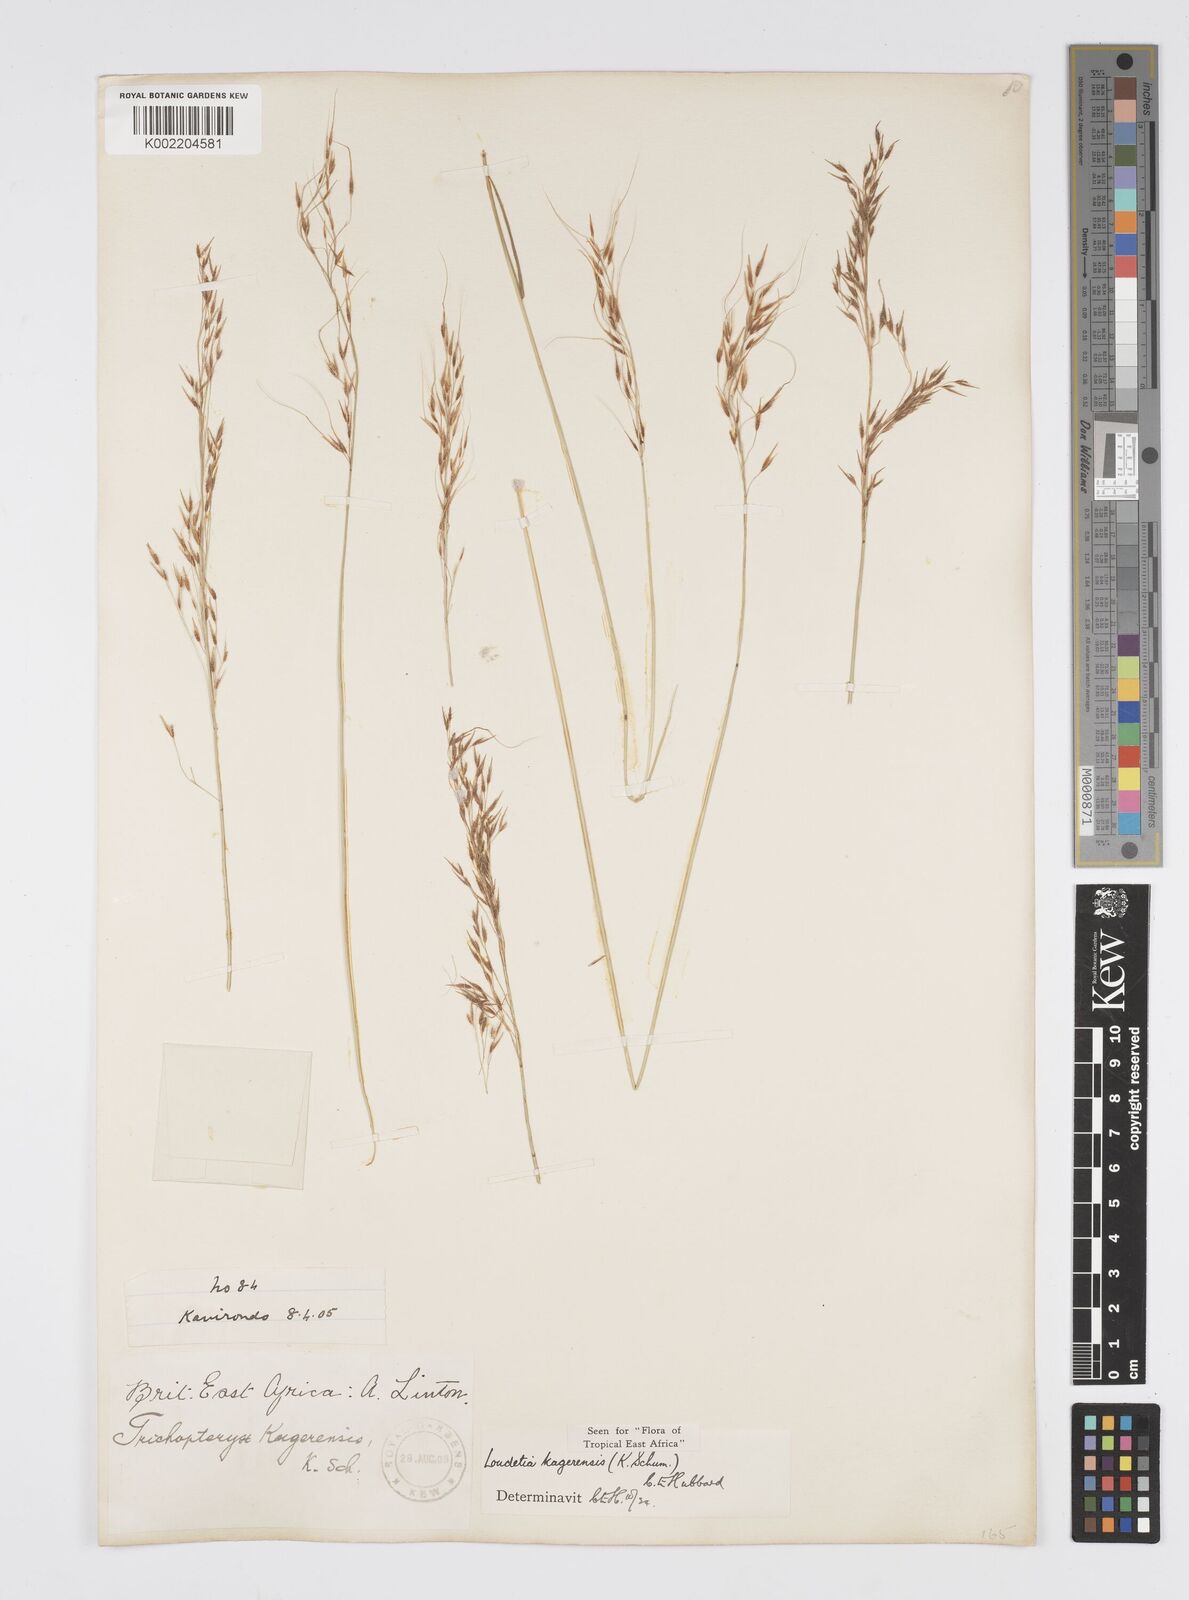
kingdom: Plantae
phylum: Tracheophyta
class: Liliopsida
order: Poales
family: Poaceae
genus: Loudetia
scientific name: Loudetia kagerensis
